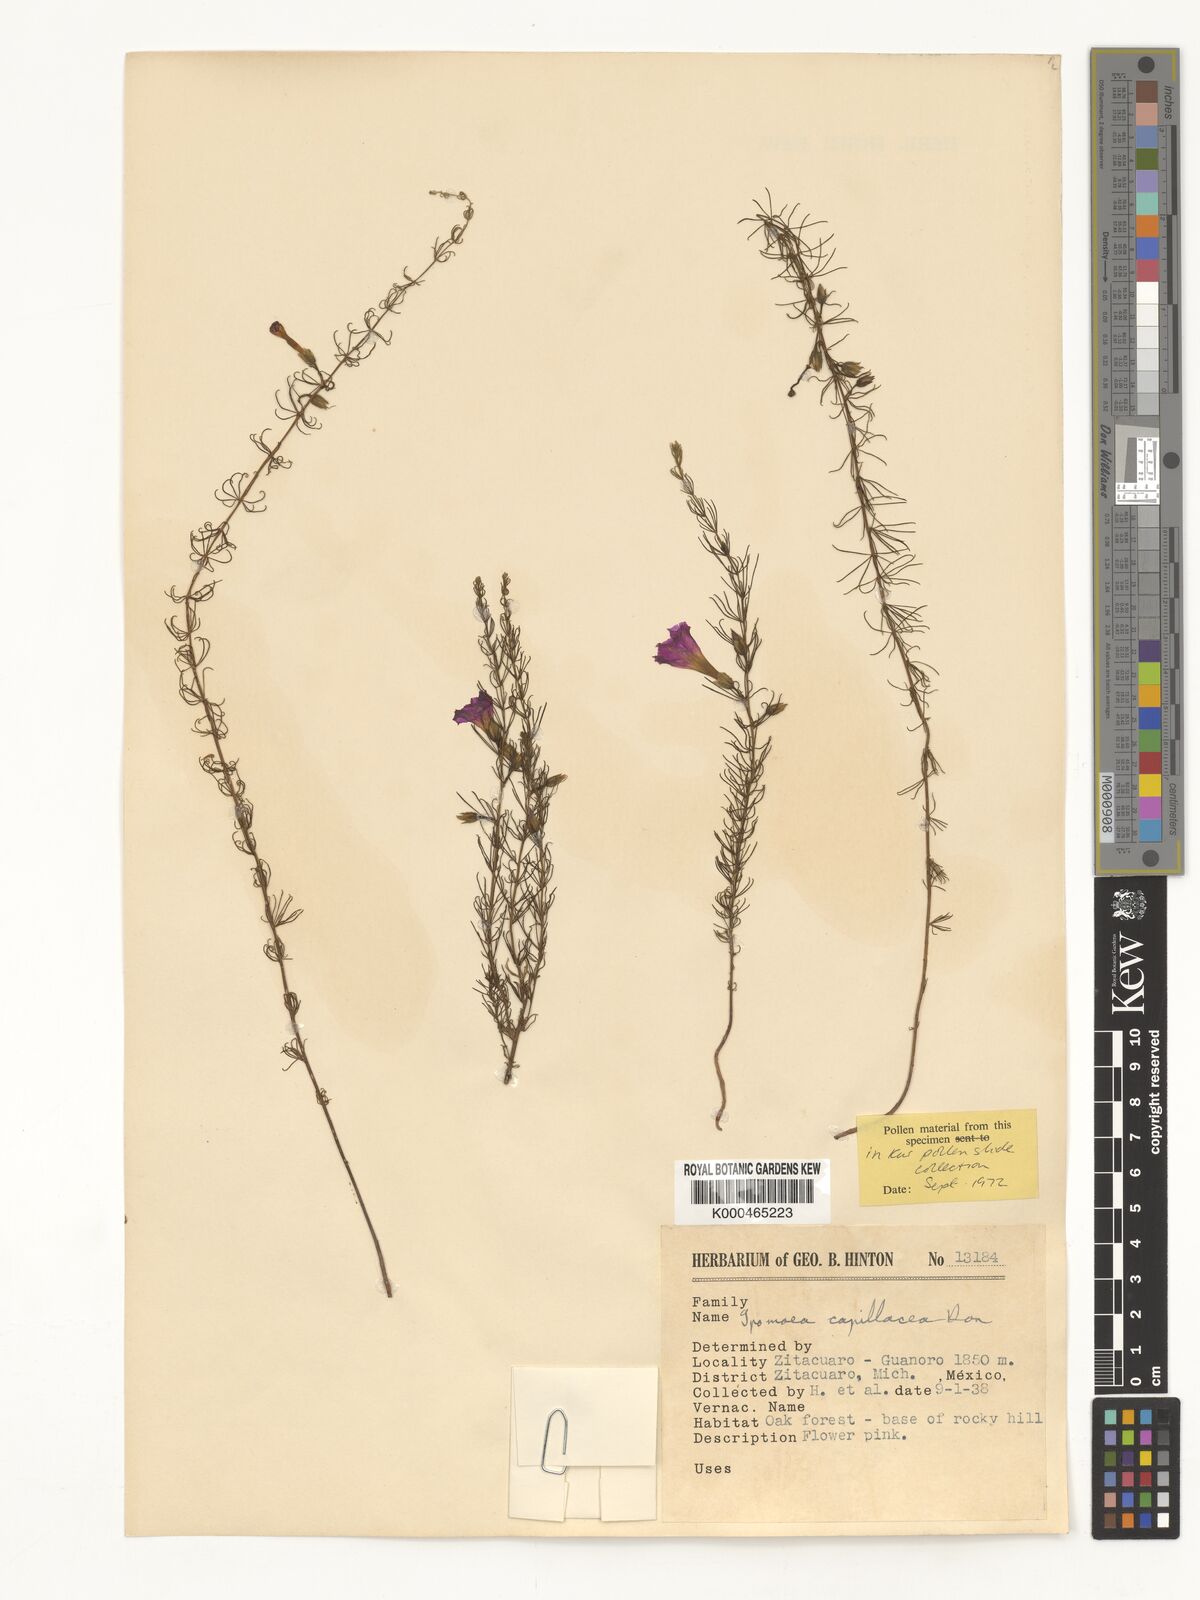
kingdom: Plantae
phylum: Tracheophyta
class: Magnoliopsida
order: Solanales
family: Convolvulaceae
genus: Ipomoea
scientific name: Ipomoea capillacea
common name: Purple morning-glory
